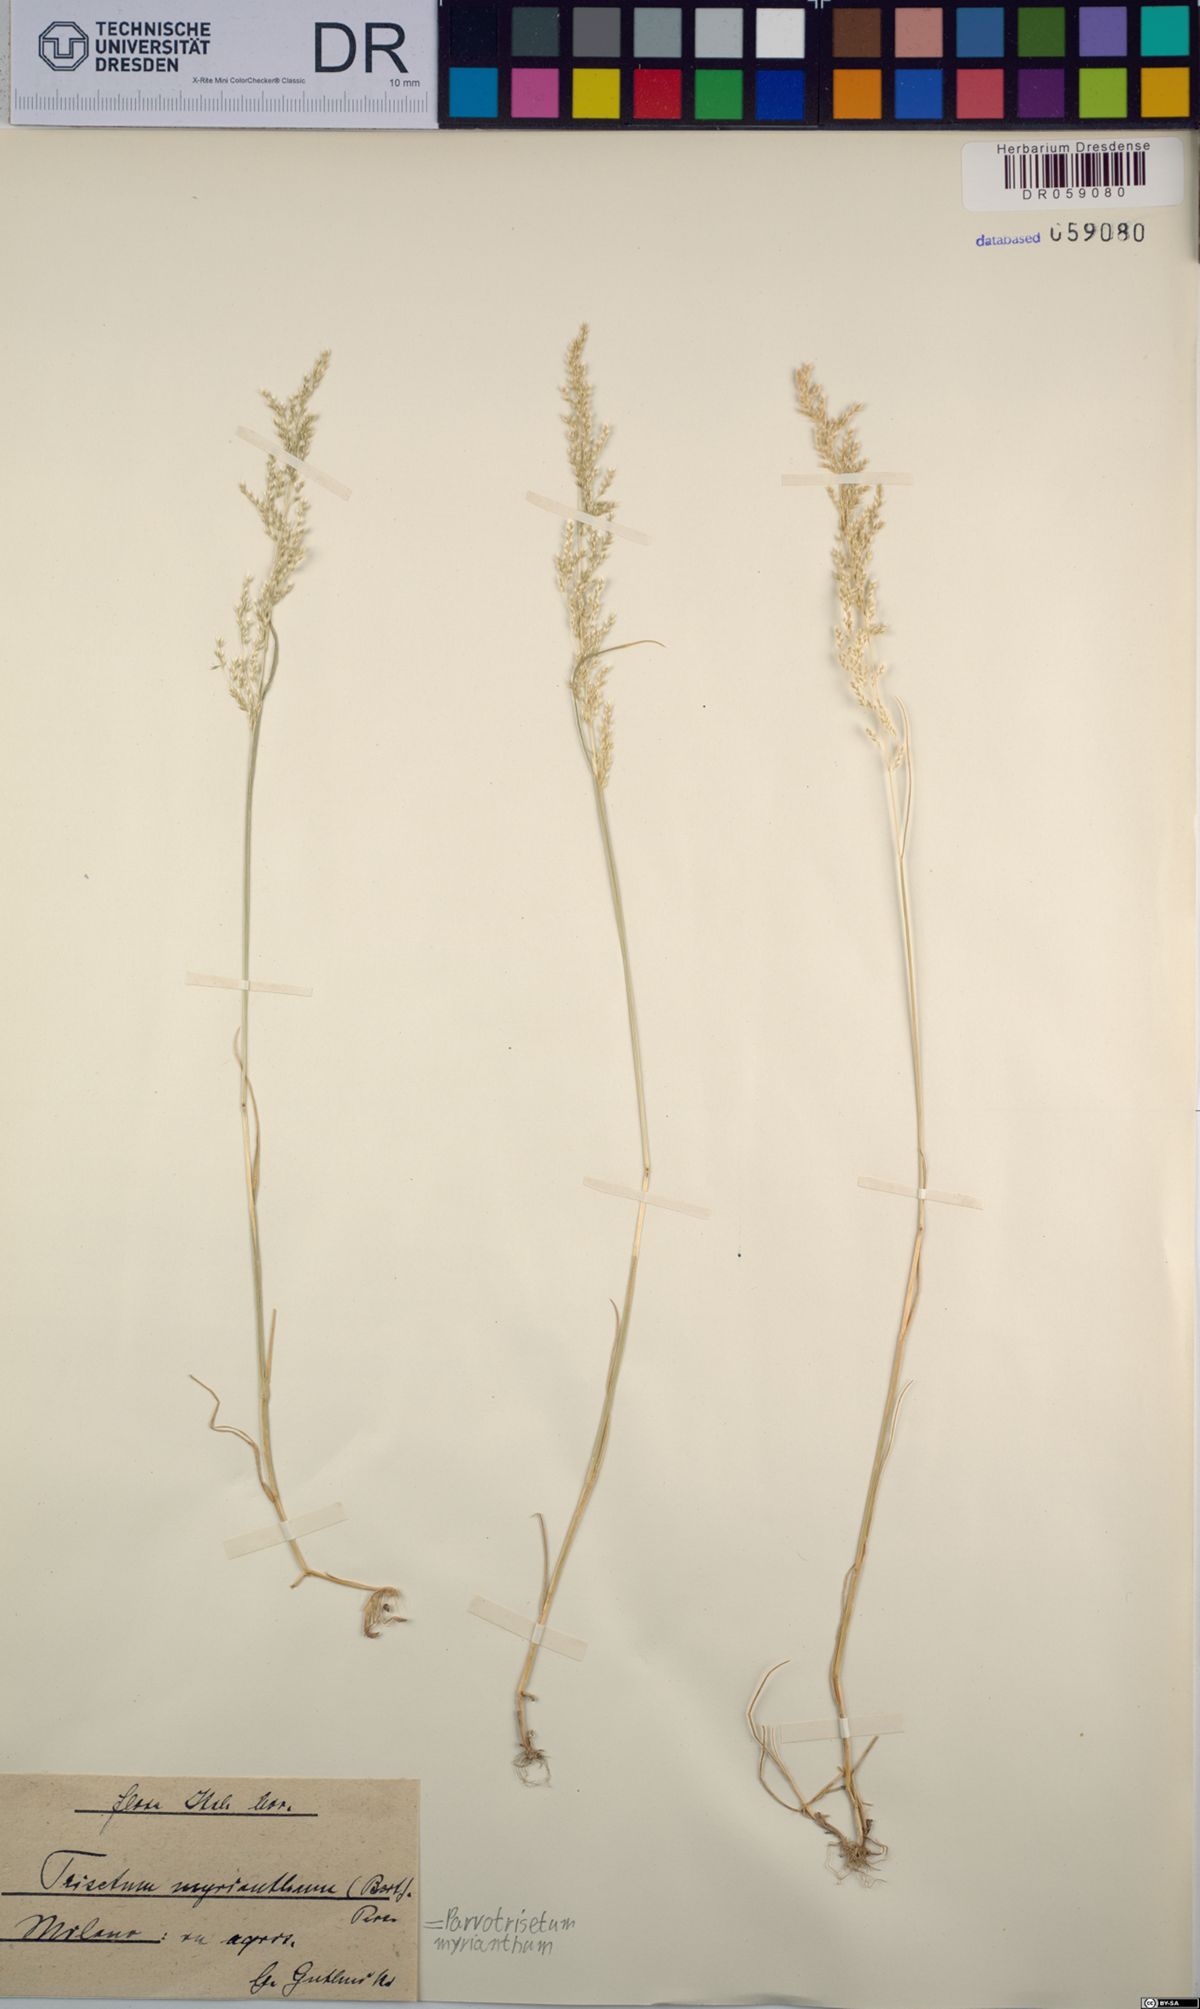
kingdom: Plantae
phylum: Tracheophyta
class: Liliopsida
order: Poales
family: Poaceae
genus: Parvotrisetum
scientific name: Parvotrisetum myrianthum
